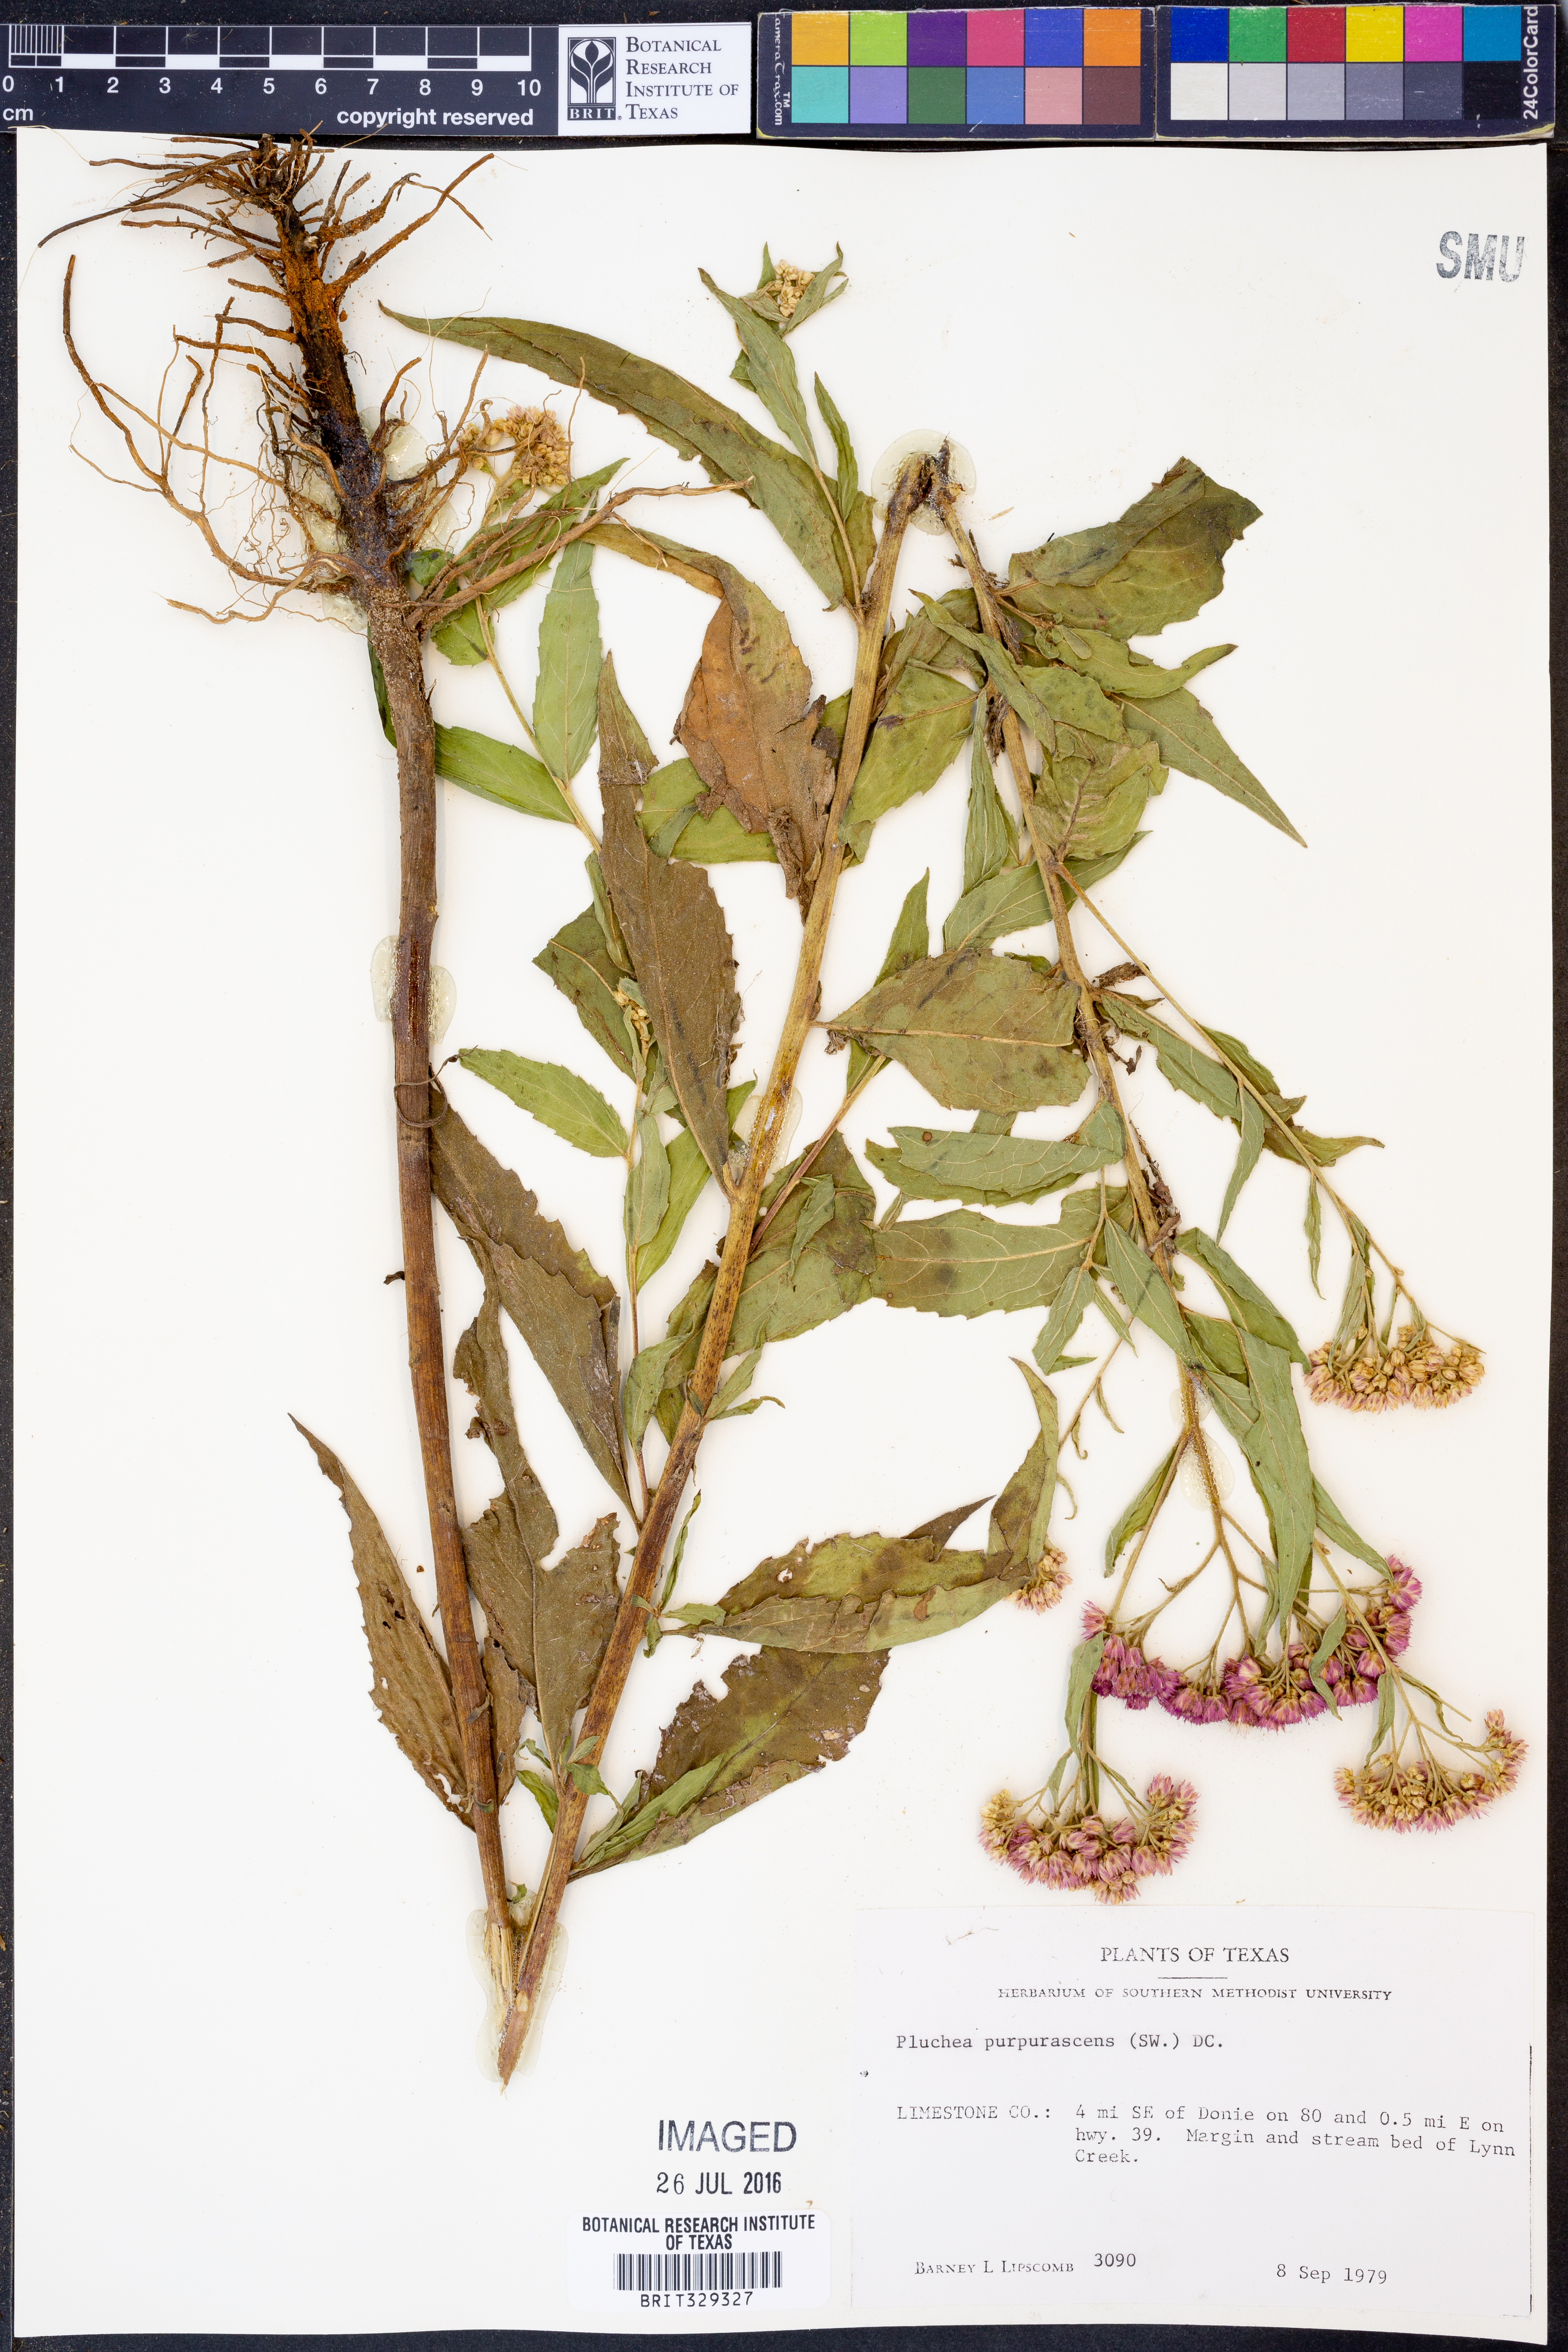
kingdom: Plantae
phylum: Tracheophyta
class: Magnoliopsida
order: Asterales
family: Asteraceae
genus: Pluchea
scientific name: Pluchea odorata
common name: Saltmarsh fleabane
